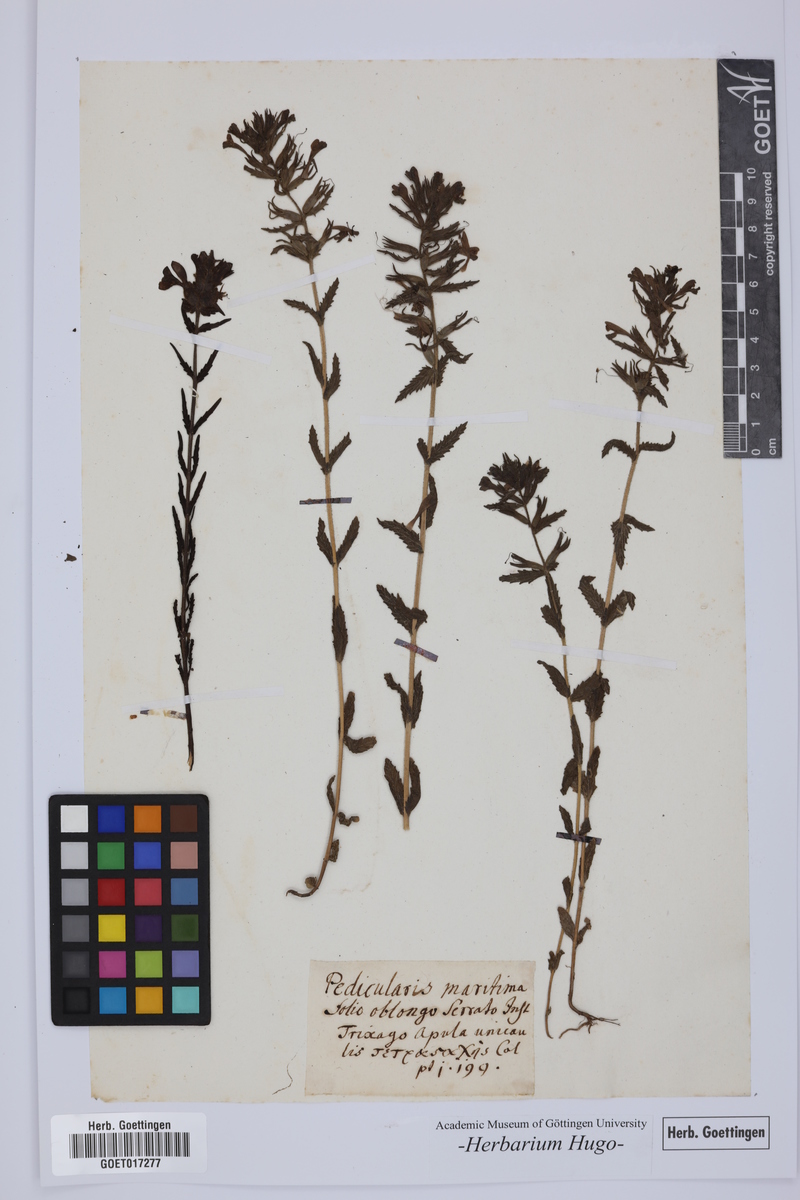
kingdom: Plantae
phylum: Tracheophyta
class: Magnoliopsida
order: Lamiales
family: Orobanchaceae
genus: Bellardia
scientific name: Bellardia trixago
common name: Mediterranean lineseed
